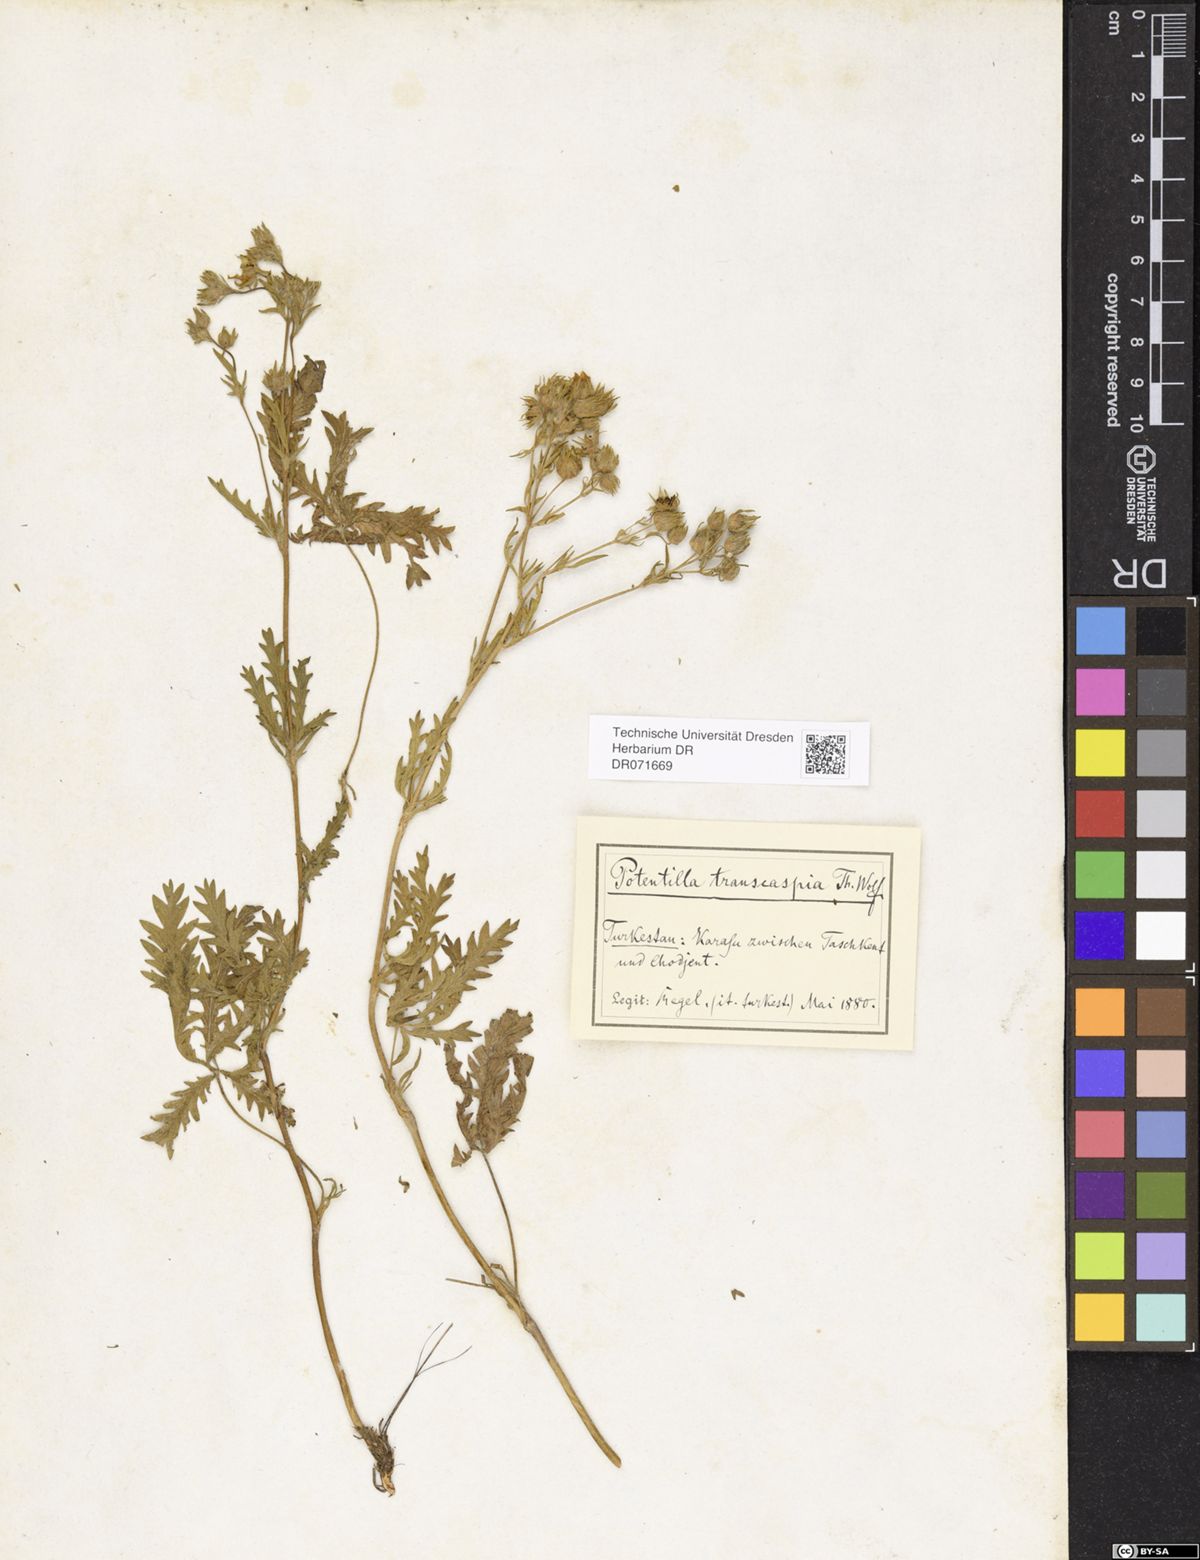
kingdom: Plantae
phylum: Tracheophyta
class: Magnoliopsida
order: Rosales
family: Rosaceae
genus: Potentilla
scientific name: Potentilla pedata
